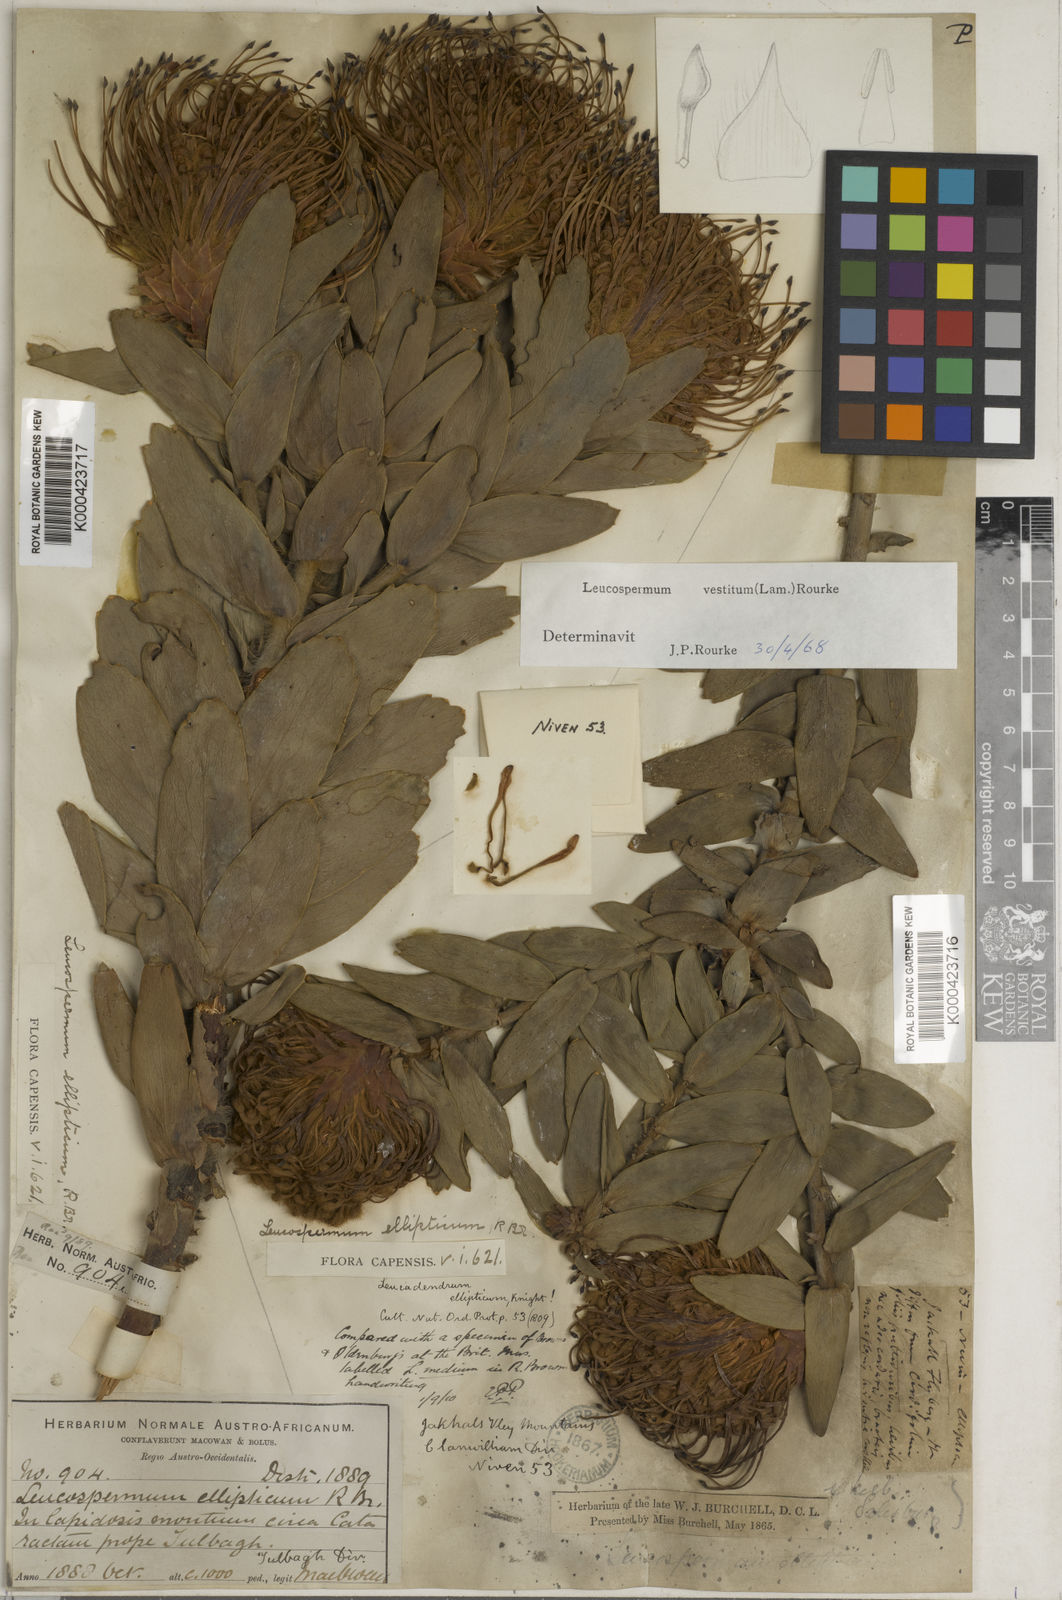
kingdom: Plantae
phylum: Tracheophyta
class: Magnoliopsida
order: Proteales
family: Proteaceae
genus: Leucospermum
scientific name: Leucospermum cuneiforme
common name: Common pincushion
